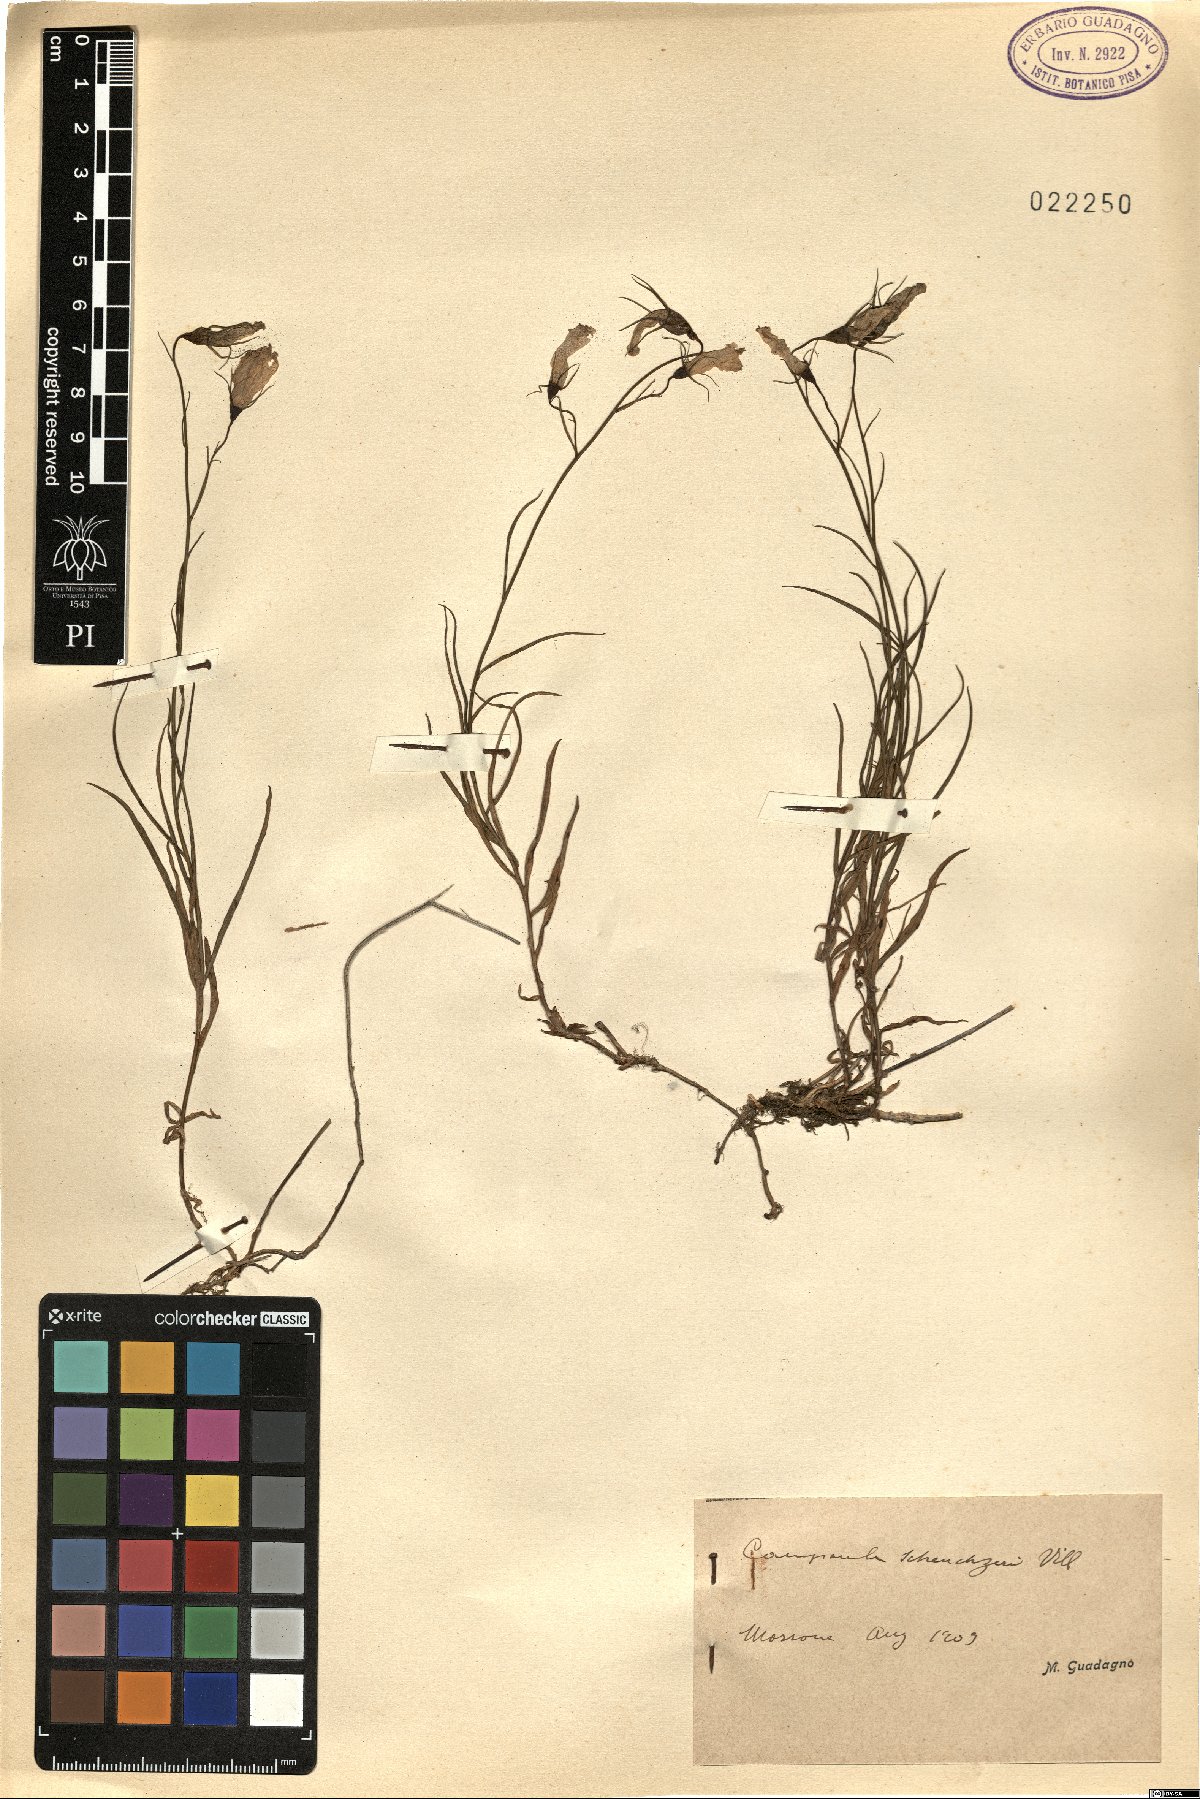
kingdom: Plantae
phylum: Tracheophyta
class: Magnoliopsida
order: Asterales
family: Campanulaceae
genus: Campanula
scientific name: Campanula scheuchzeri
